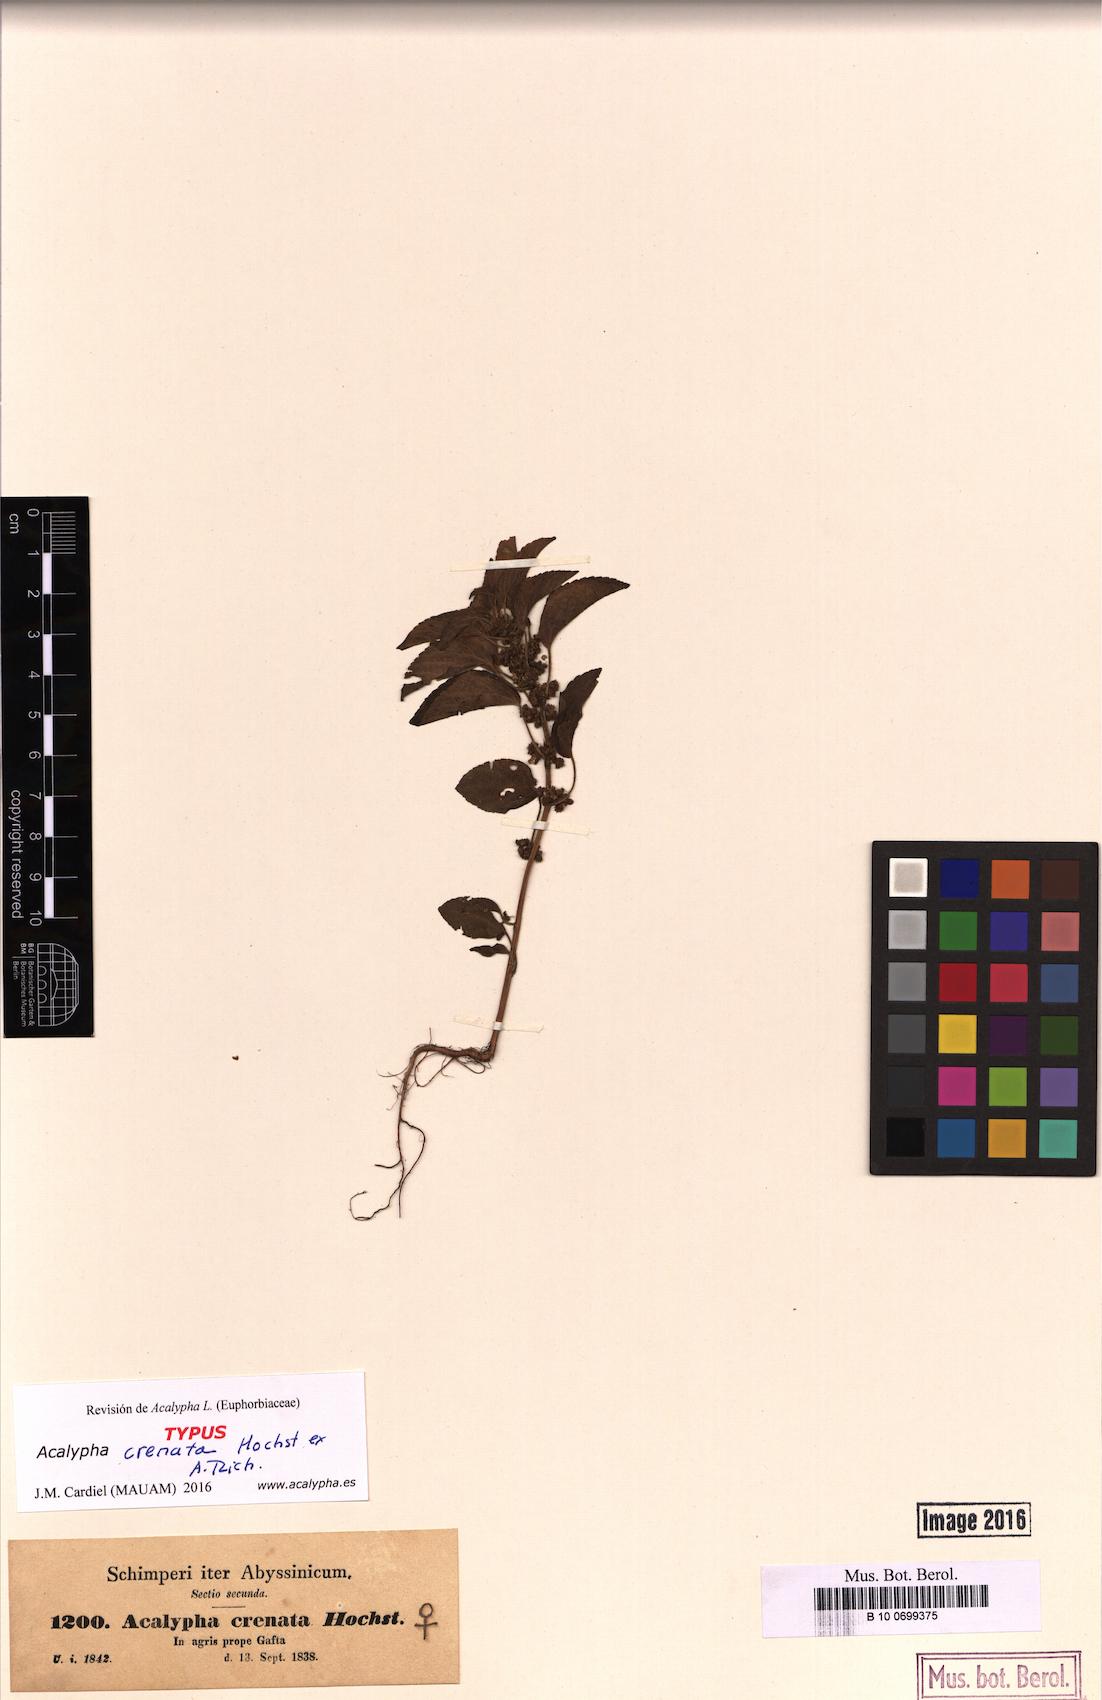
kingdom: Plantae
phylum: Tracheophyta
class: Magnoliopsida
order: Malpighiales
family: Euphorbiaceae
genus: Acalypha
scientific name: Acalypha crenata
